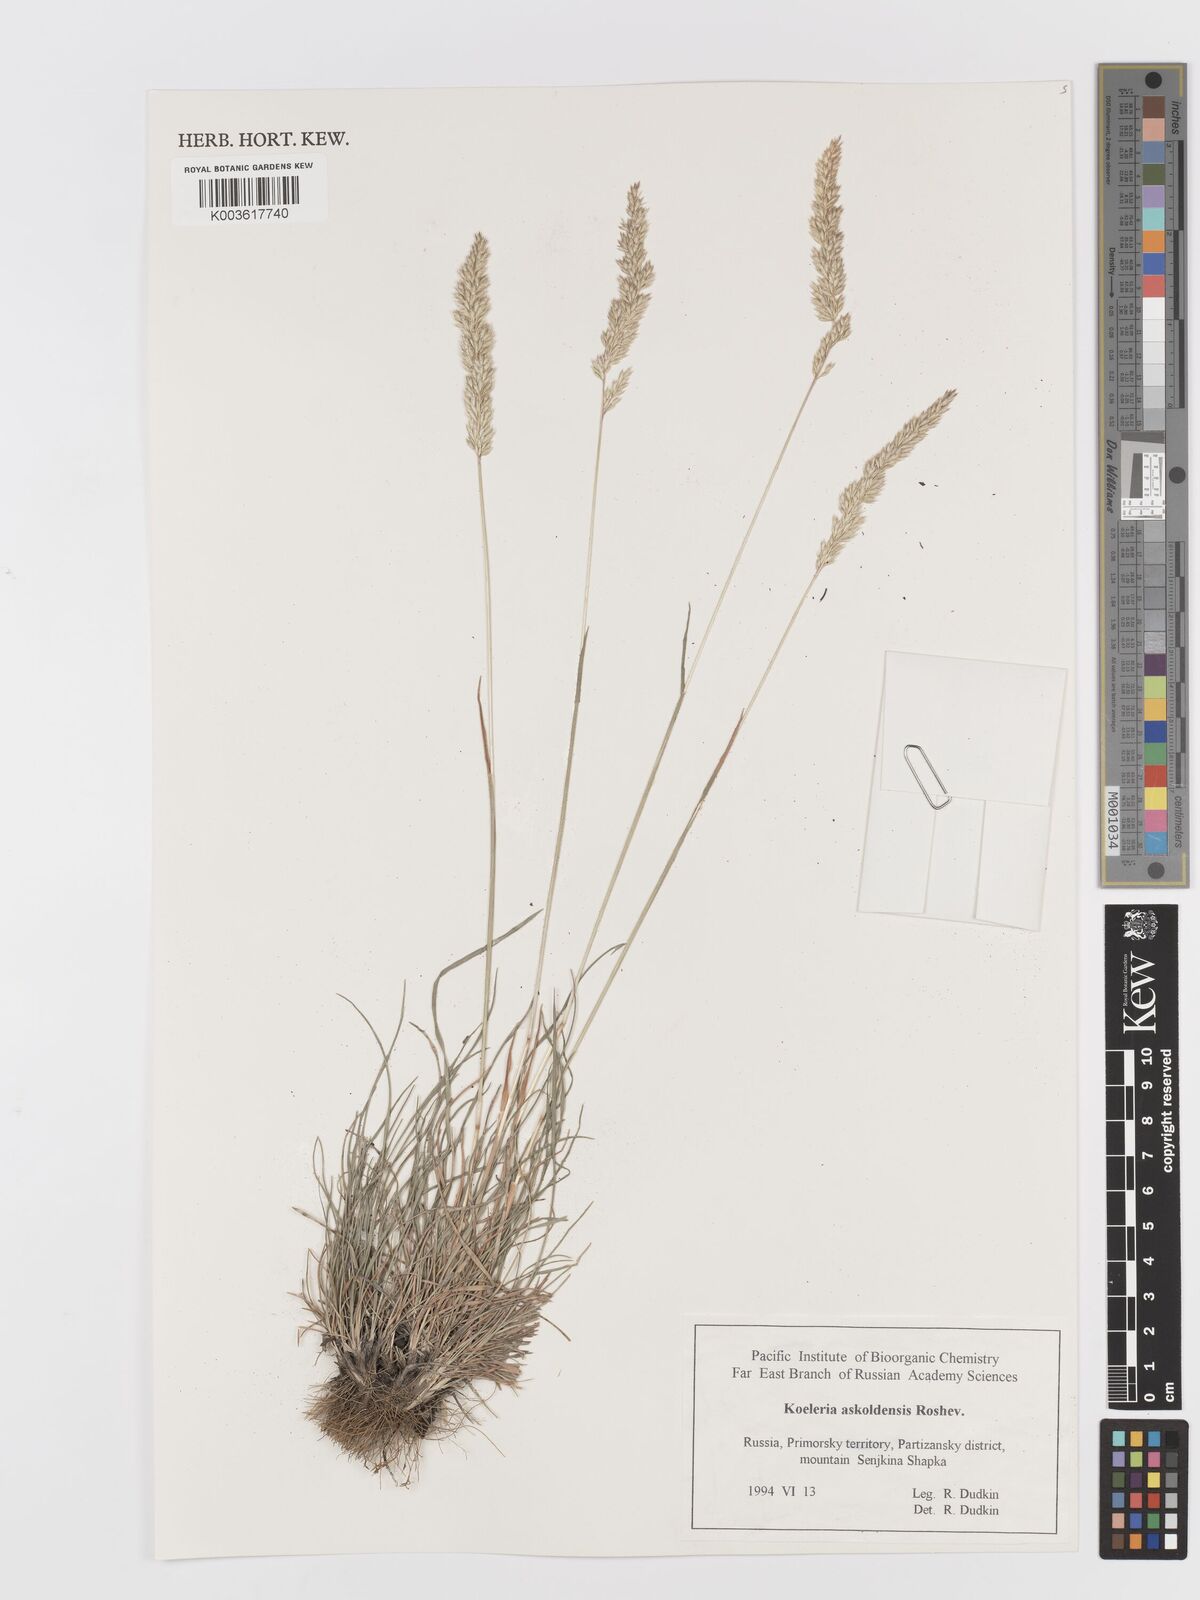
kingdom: Plantae
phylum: Tracheophyta
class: Liliopsida
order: Poales
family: Poaceae
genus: Koeleria
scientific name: Koeleria
